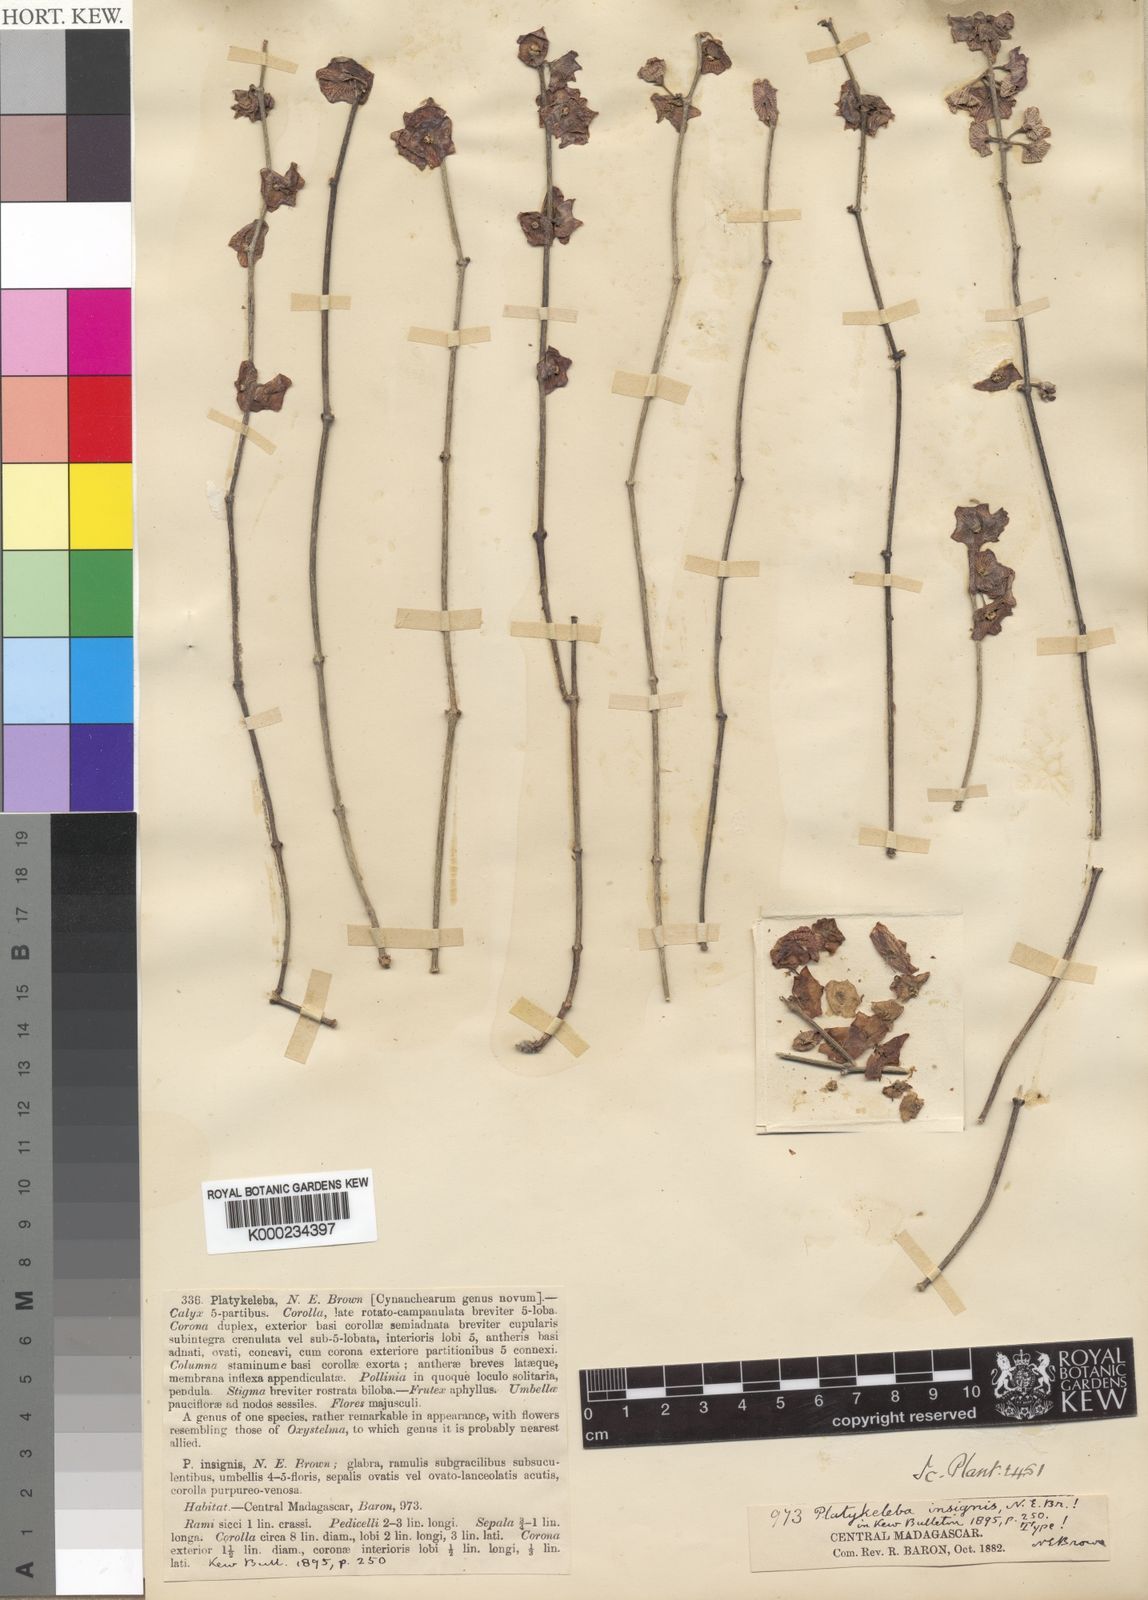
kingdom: Plantae
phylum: Tracheophyta
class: Magnoliopsida
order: Gentianales
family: Apocynaceae
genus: Cynanchum
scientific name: Cynanchum insigne
